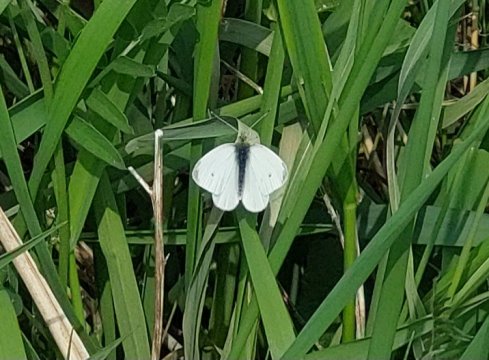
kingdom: Animalia
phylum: Arthropoda
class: Insecta
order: Lepidoptera
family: Pieridae
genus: Pieris
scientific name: Pieris rapae
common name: Cabbage White
